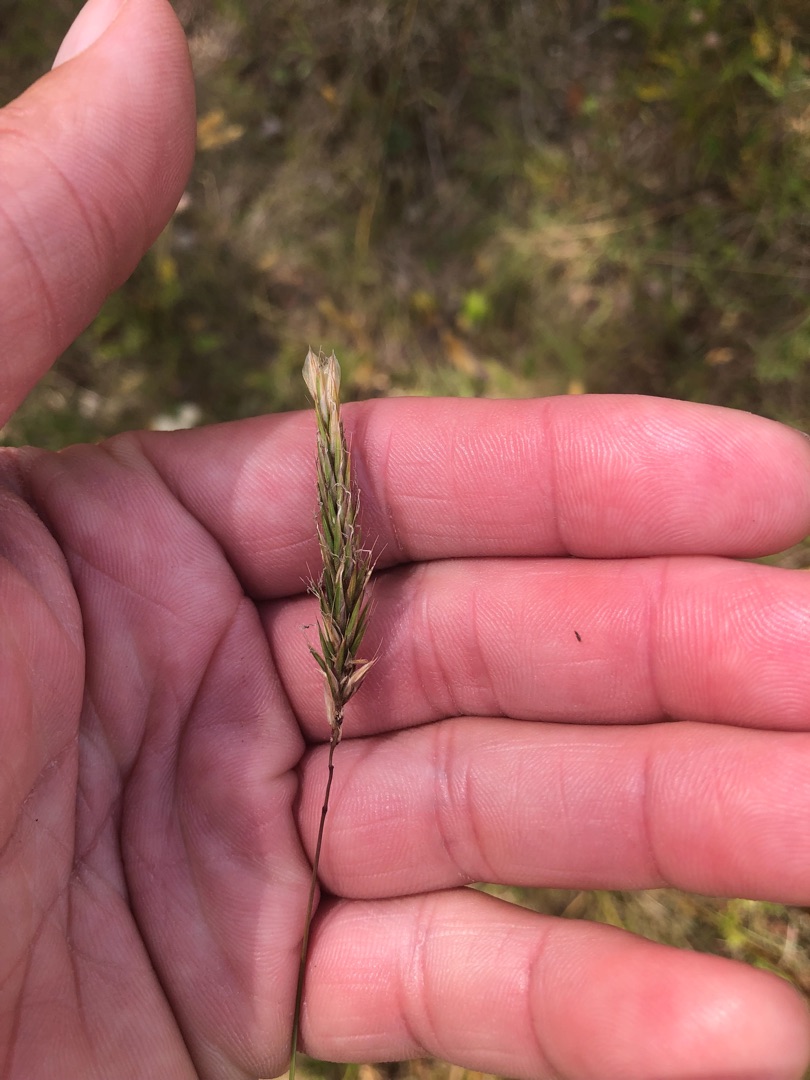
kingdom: Plantae
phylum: Tracheophyta
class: Liliopsida
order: Poales
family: Poaceae
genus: Anthoxanthum
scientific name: Anthoxanthum odoratum
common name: Vellugtende gulaks
